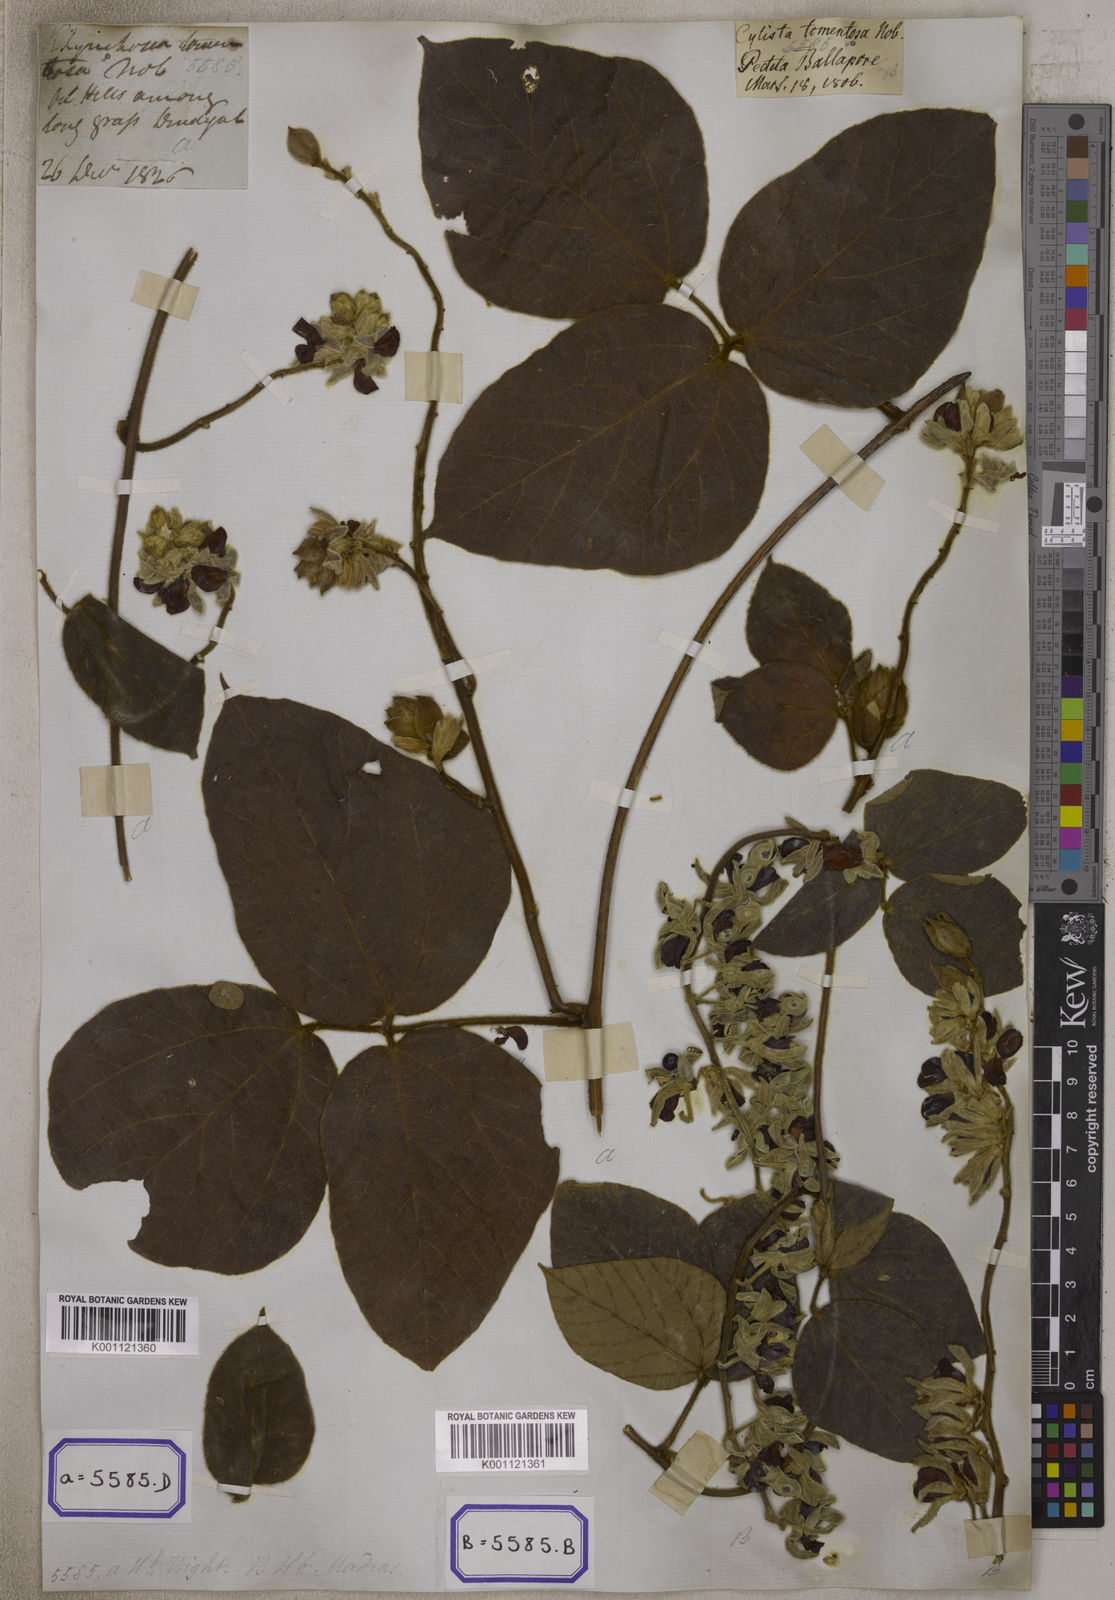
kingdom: Plantae
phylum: Tracheophyta
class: Magnoliopsida
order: Fabales
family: Fabaceae
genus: Rhynchosia
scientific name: Rhynchosia hirta
